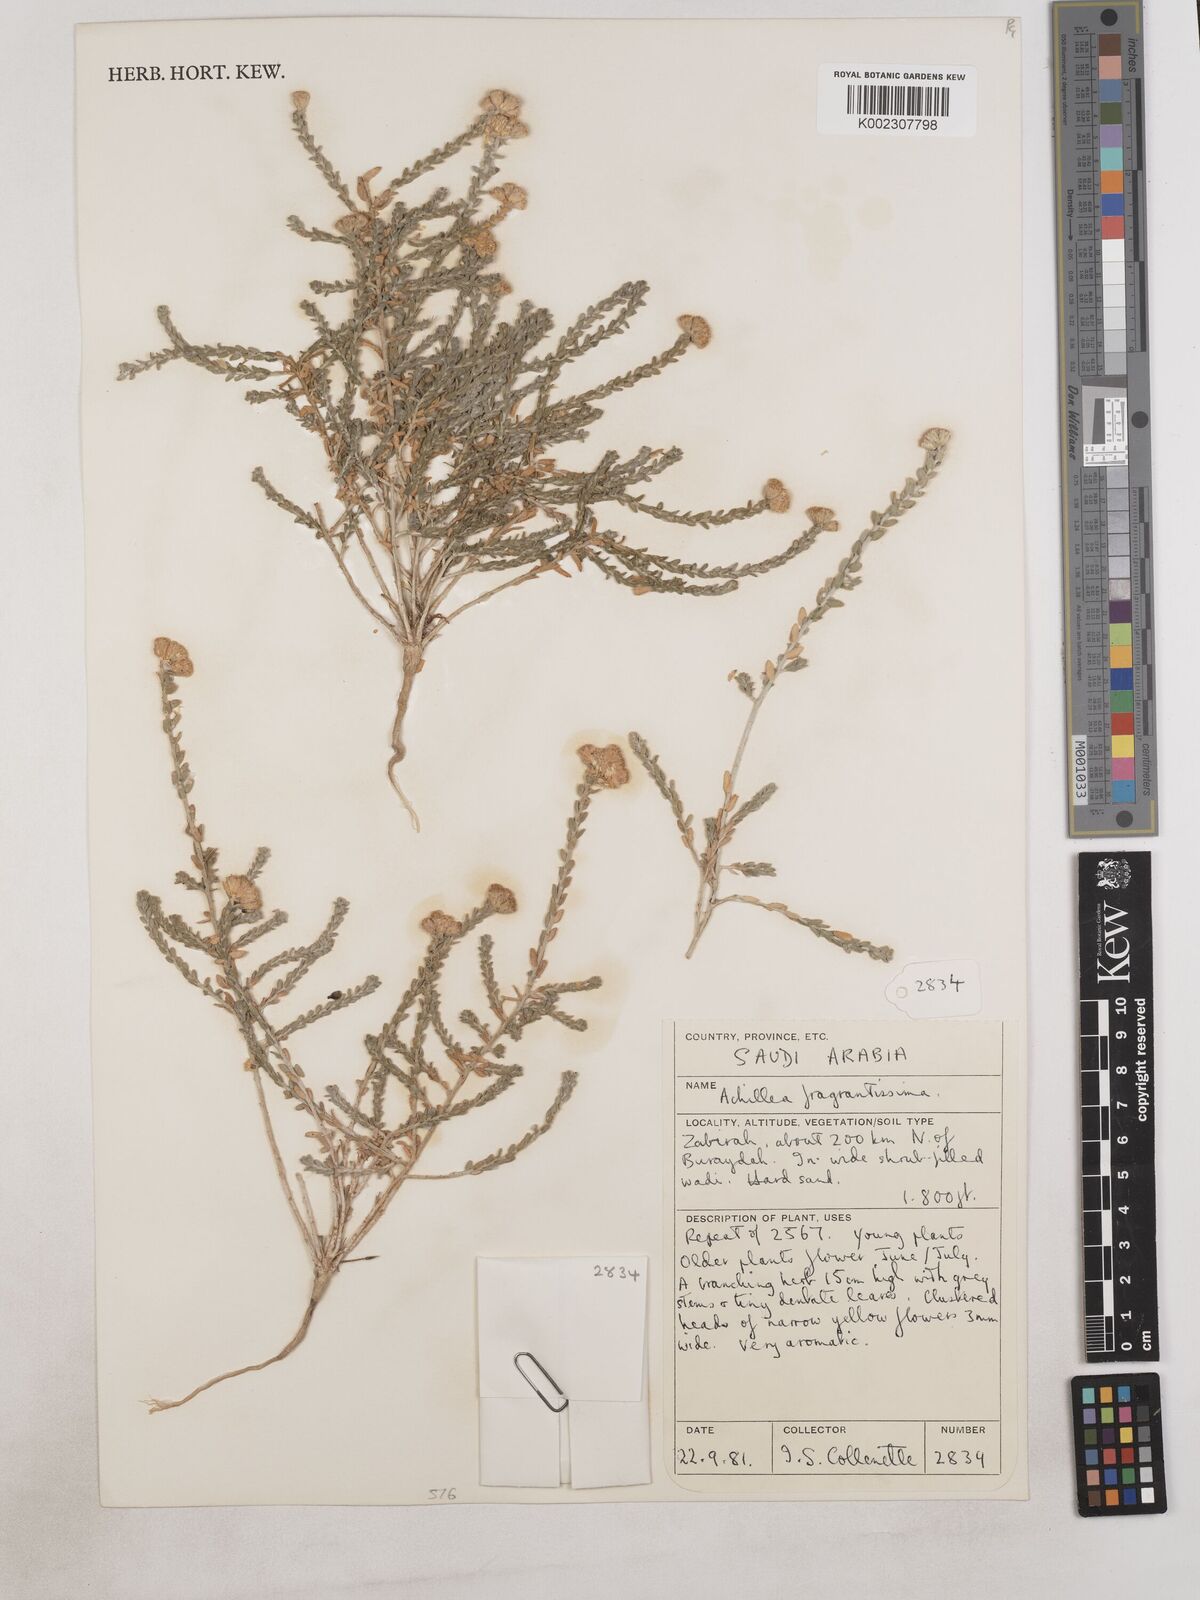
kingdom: Plantae
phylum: Tracheophyta
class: Magnoliopsida
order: Asterales
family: Asteraceae
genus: Achillea
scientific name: Achillea fragrantissima
